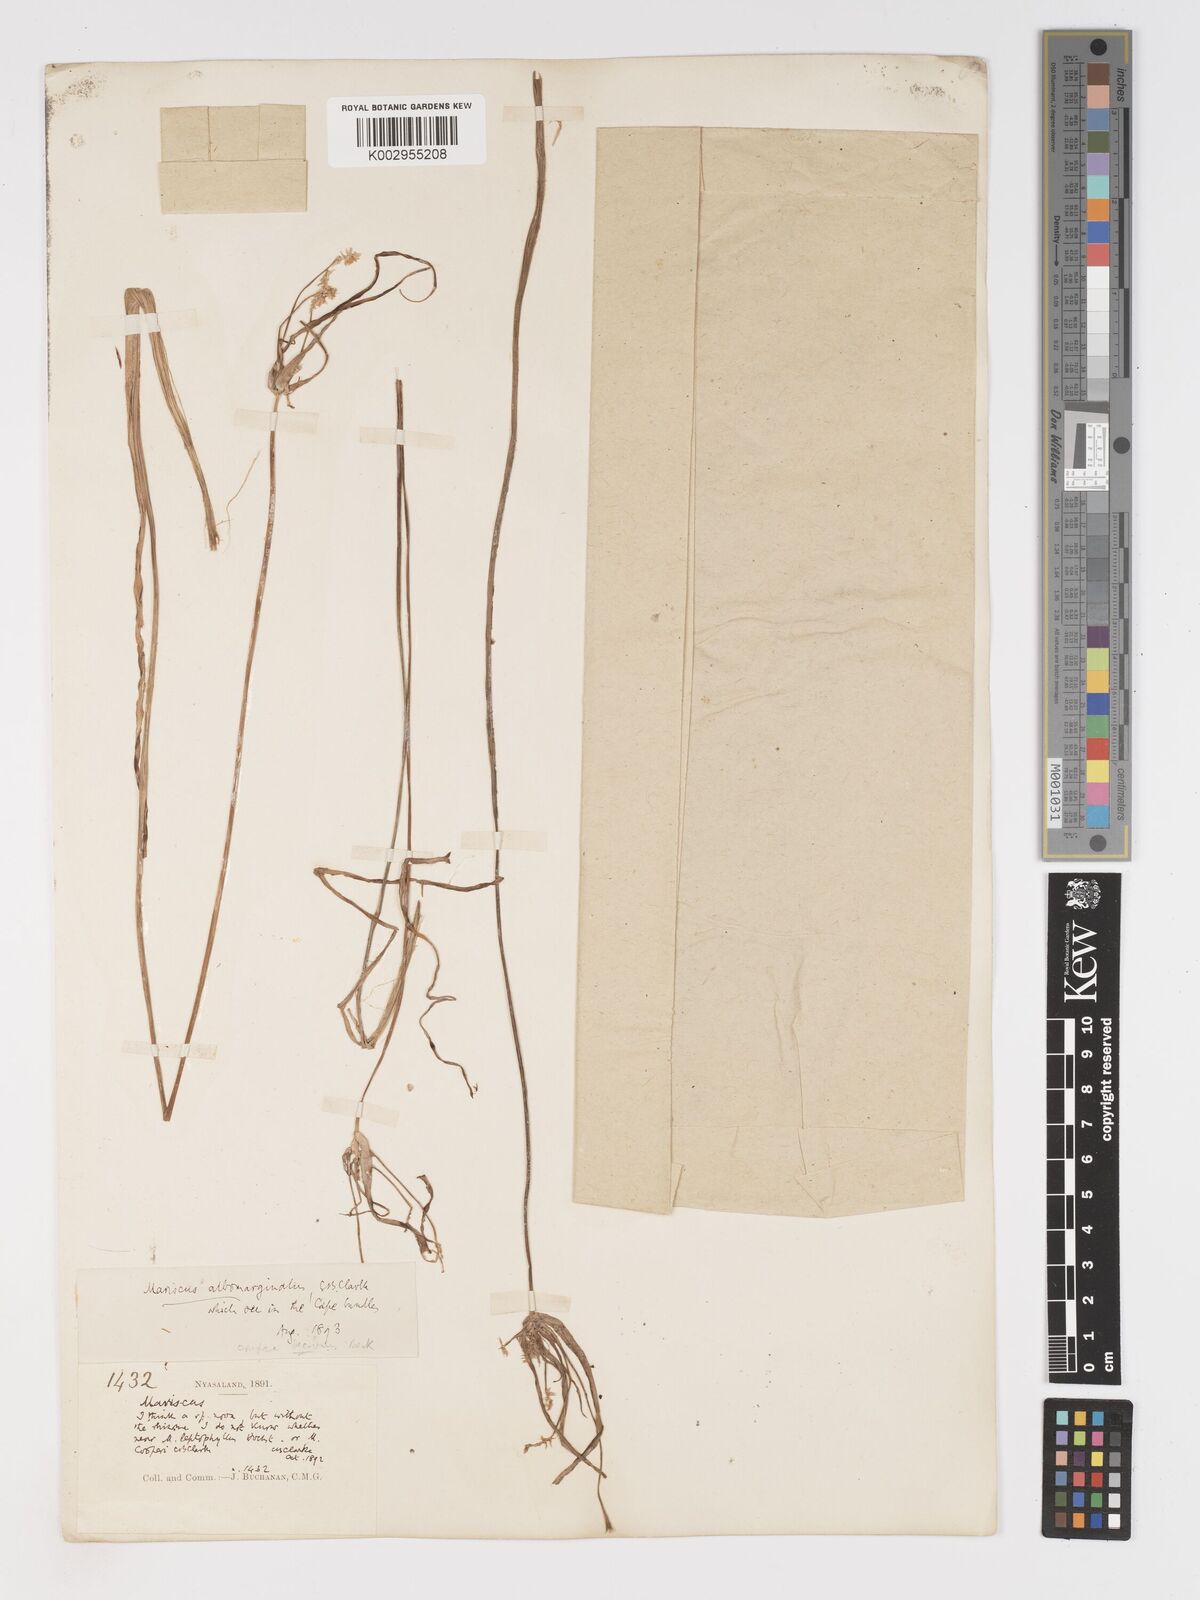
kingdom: Plantae
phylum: Tracheophyta
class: Liliopsida
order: Poales
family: Cyperaceae
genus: Cyperus
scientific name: Cyperus
